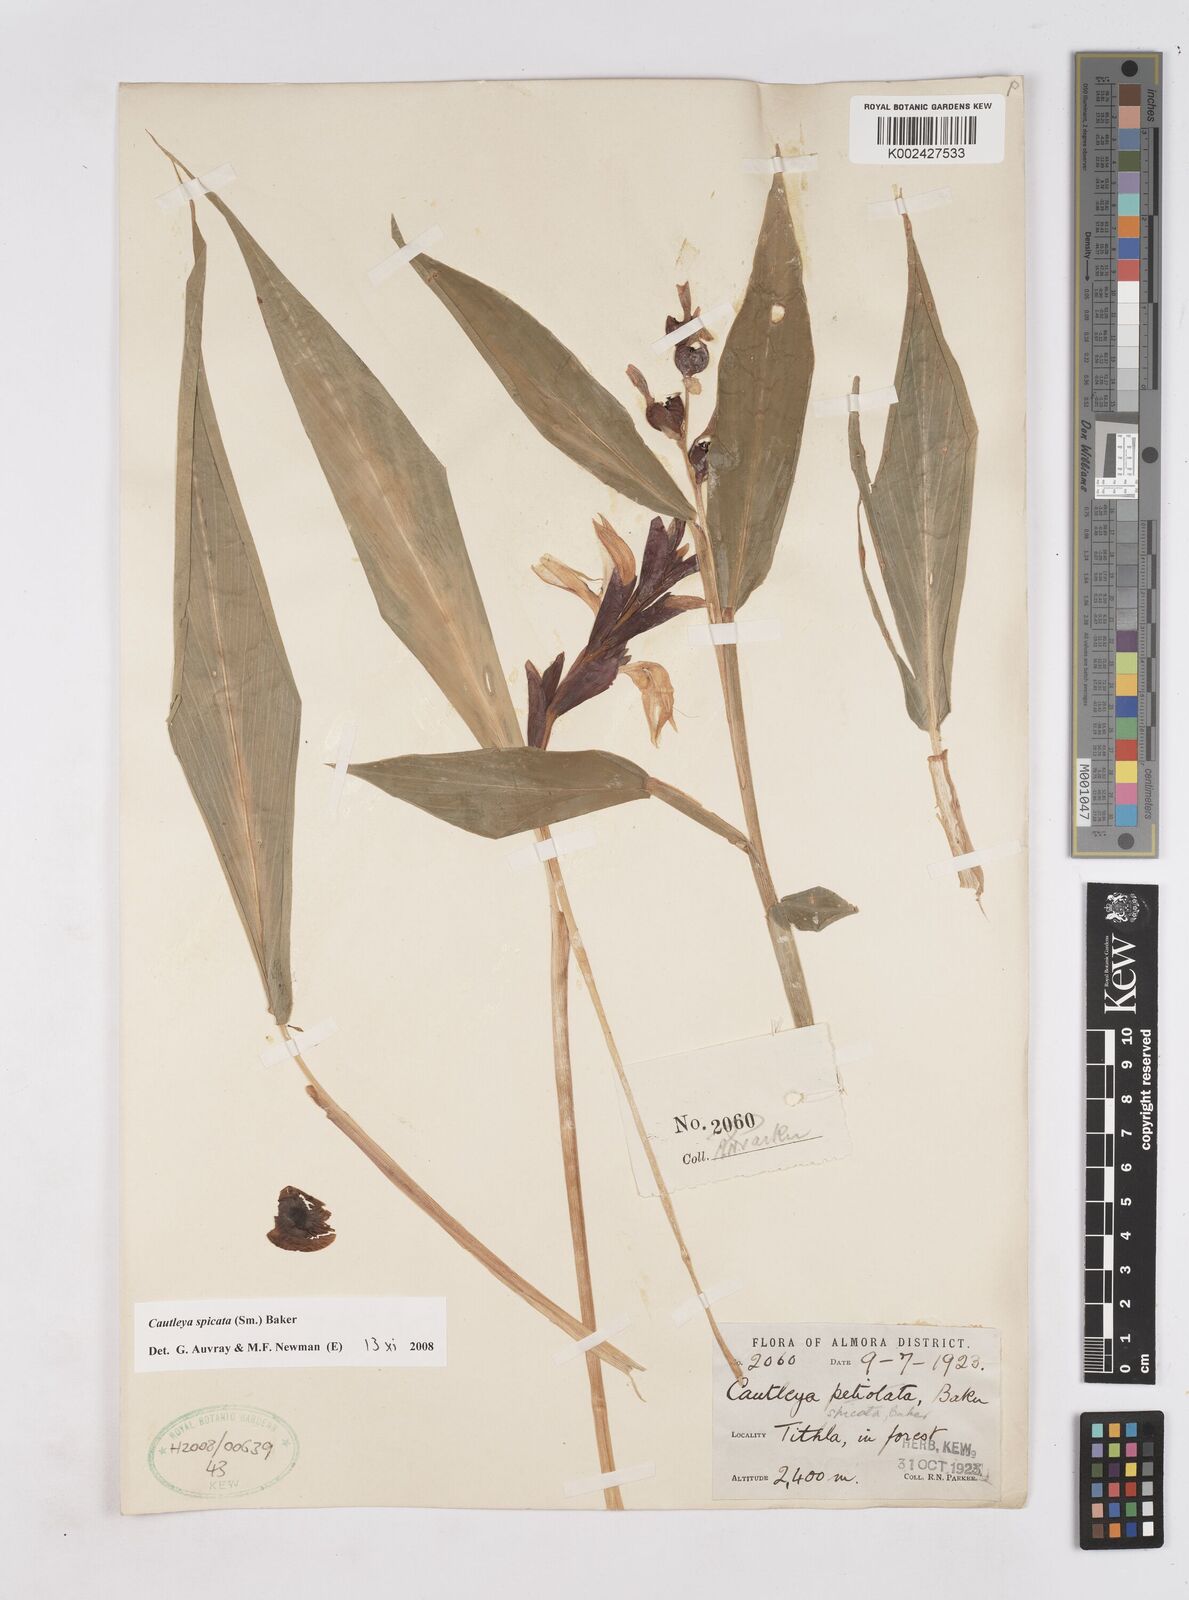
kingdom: Plantae
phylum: Tracheophyta
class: Liliopsida
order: Zingiberales
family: Zingiberaceae
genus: Cautleya
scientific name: Cautleya spicata
